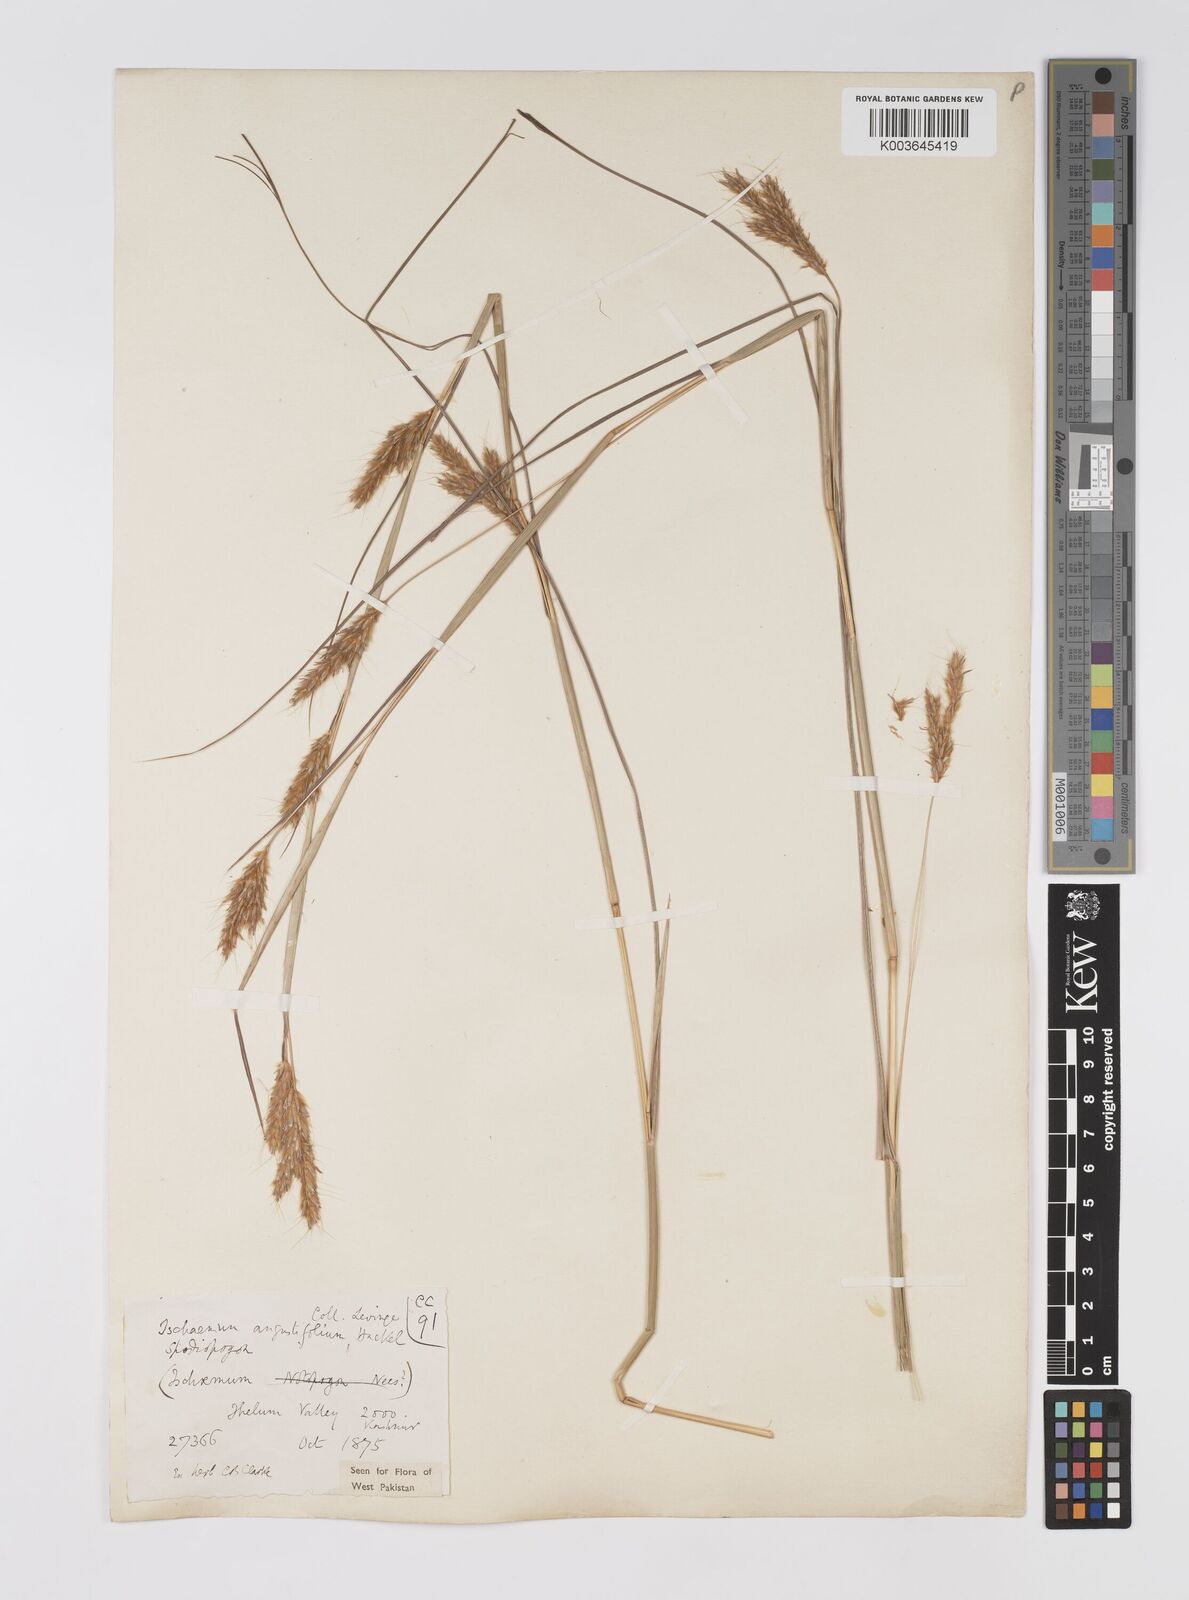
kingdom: Plantae
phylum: Tracheophyta
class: Liliopsida
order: Poales
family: Poaceae
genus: Eulaliopsis
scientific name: Eulaliopsis binata
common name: Baib grass
